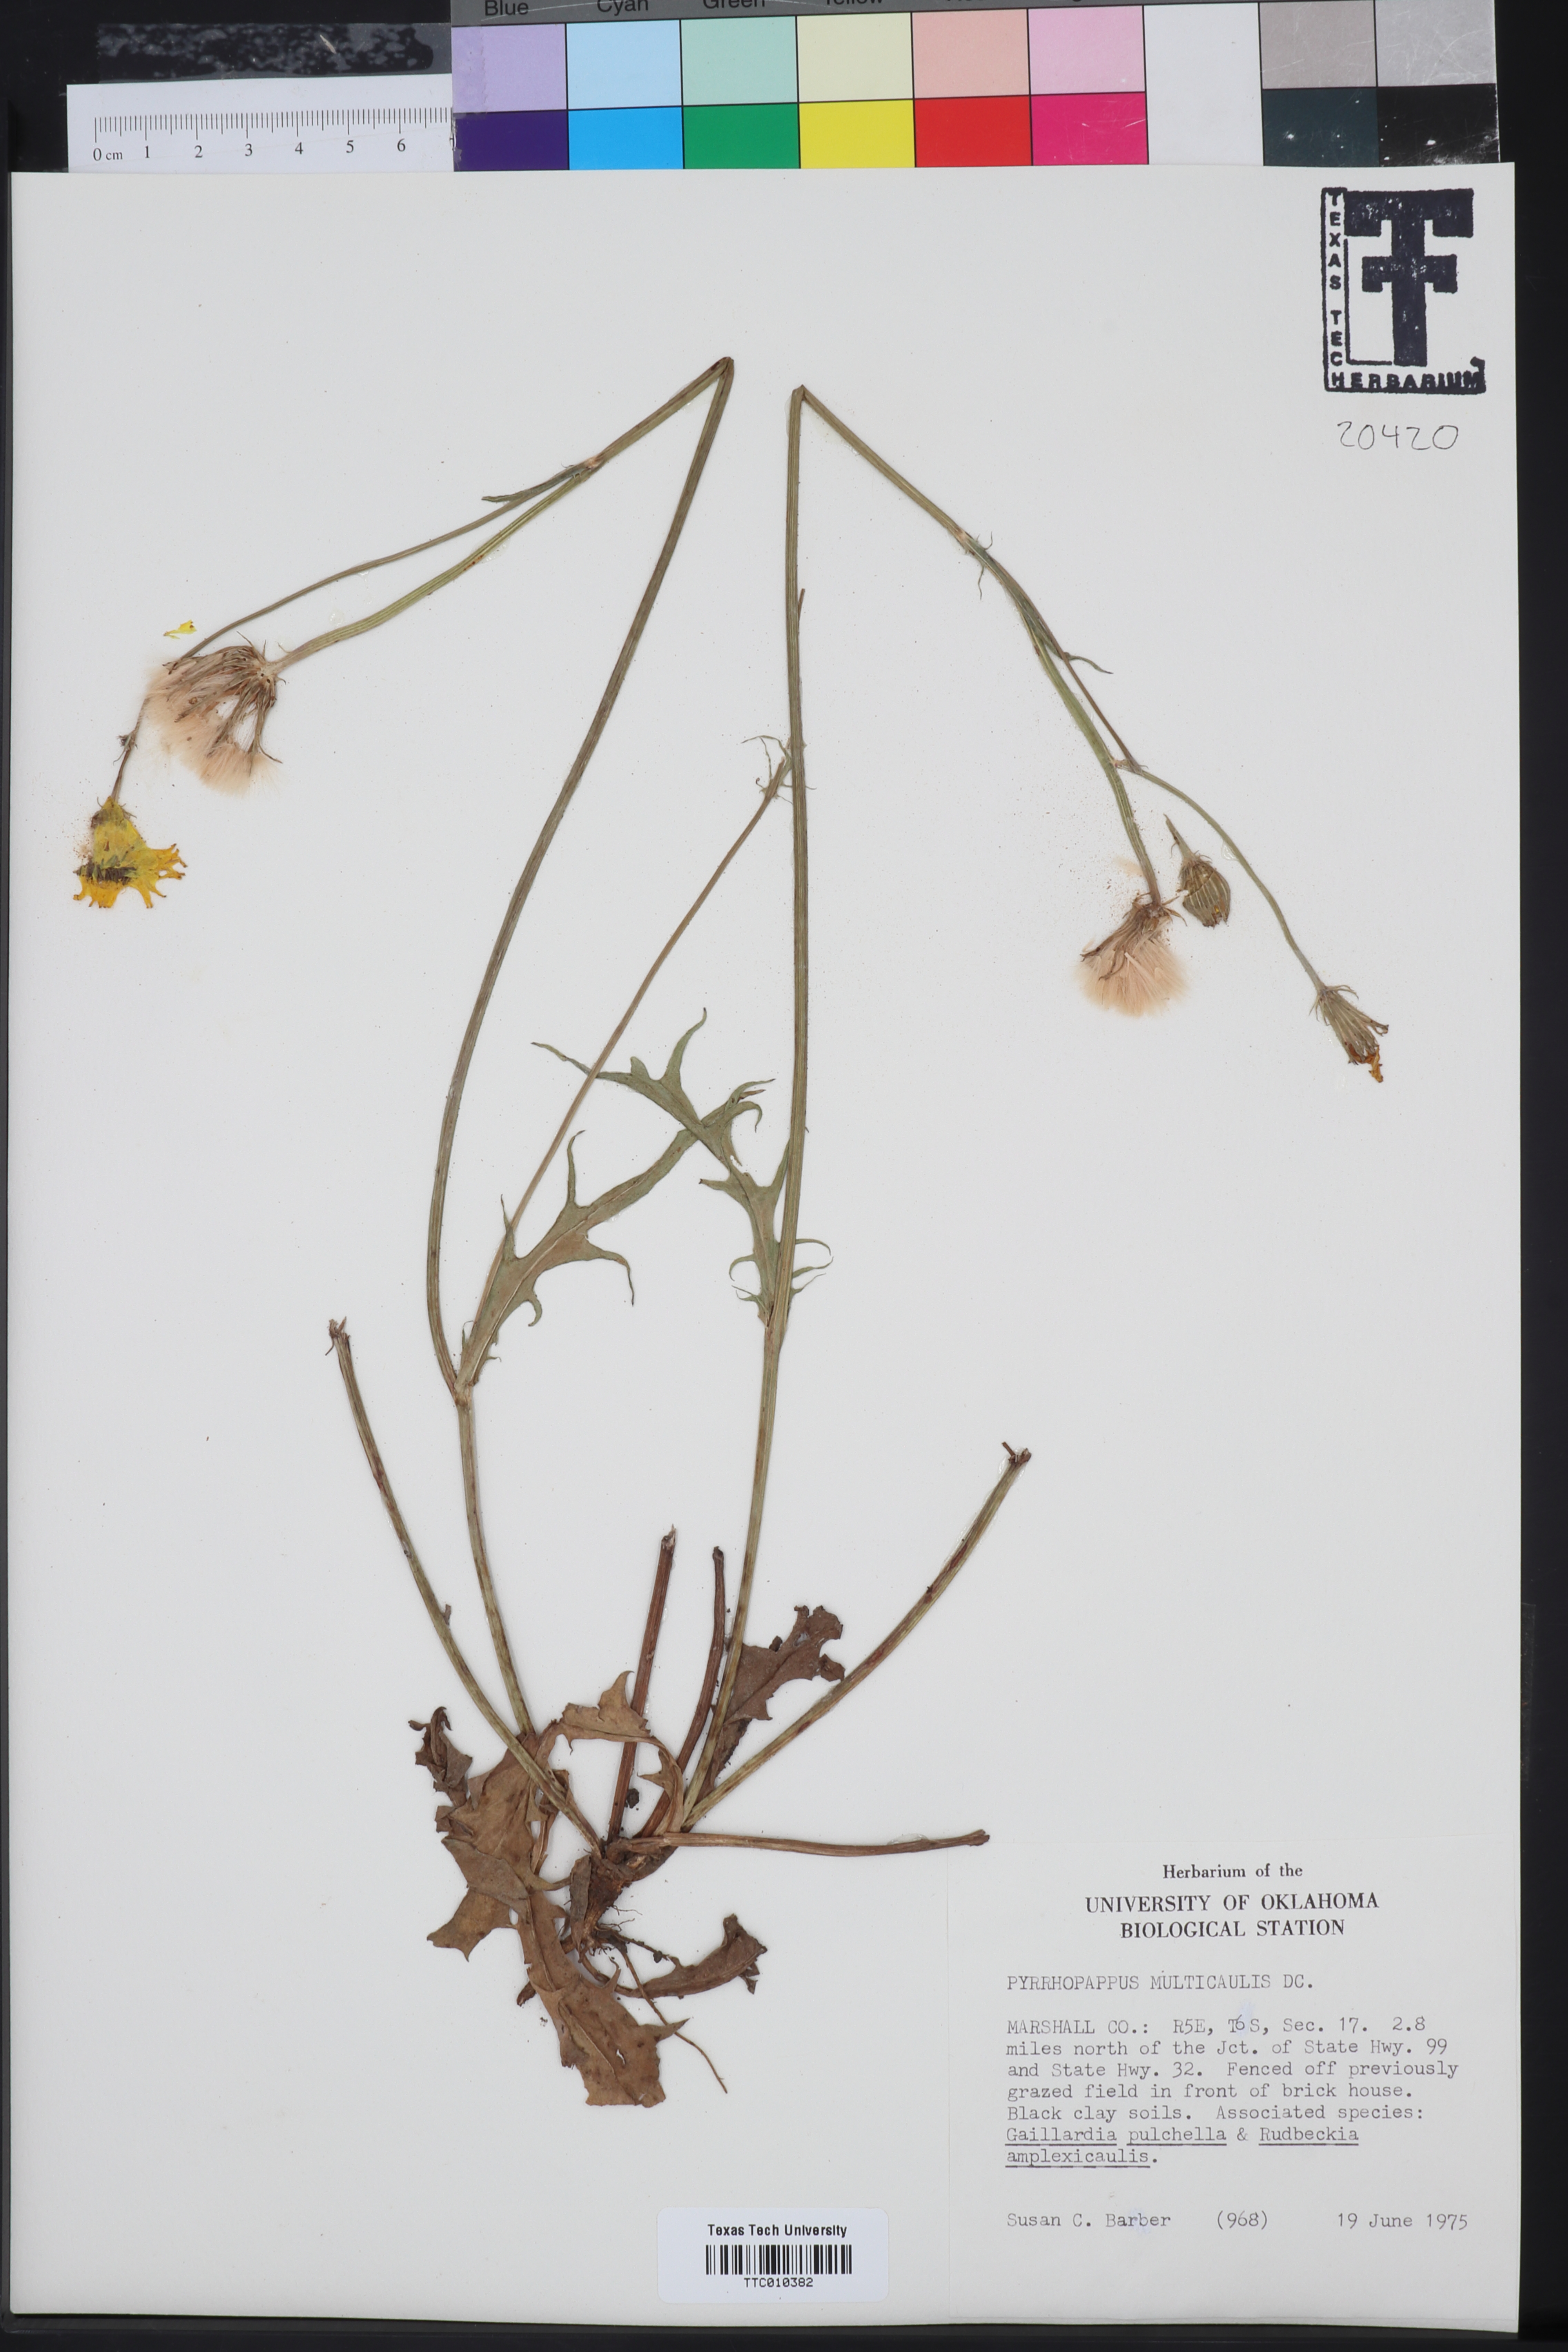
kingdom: Plantae
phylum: Tracheophyta
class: Magnoliopsida
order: Asterales
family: Asteraceae
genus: Pyrrhopappus
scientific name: Pyrrhopappus pauciflorus
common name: Texas false dandelion
